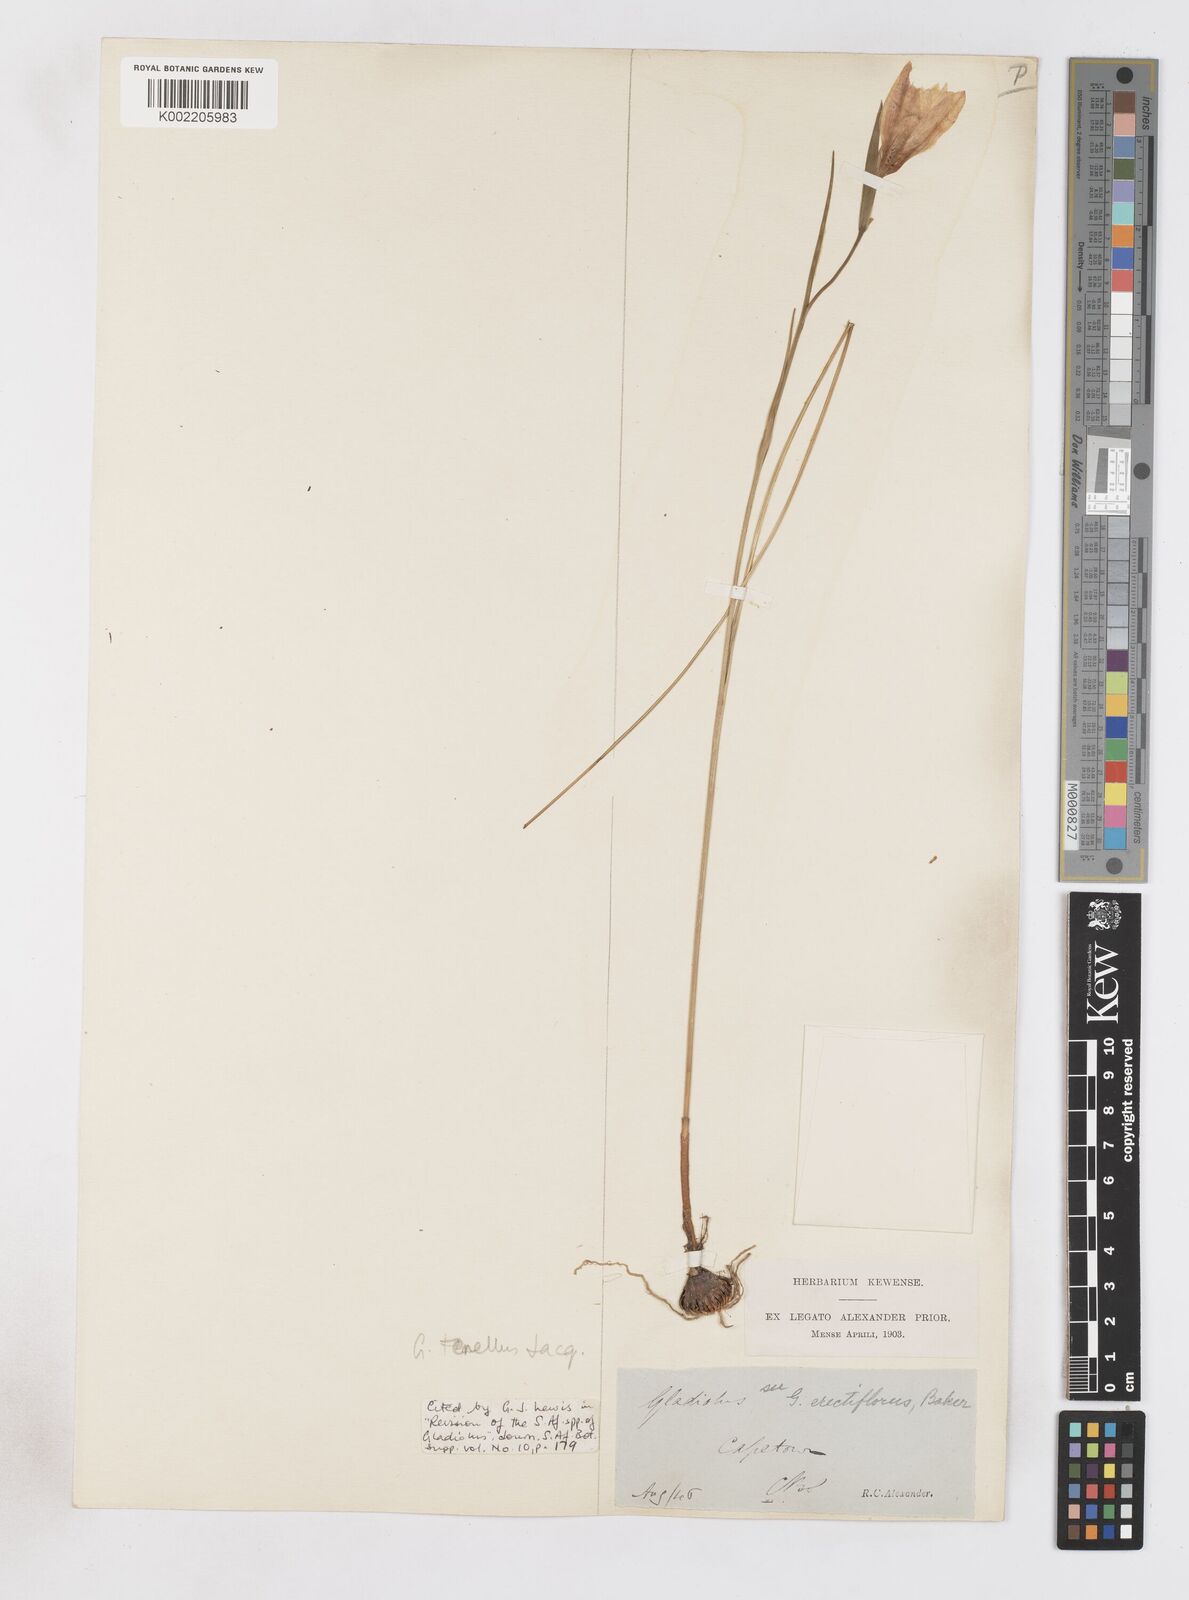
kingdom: Plantae
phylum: Tracheophyta
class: Liliopsida
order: Asparagales
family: Iridaceae
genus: Gladiolus
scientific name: Gladiolus carinatus
